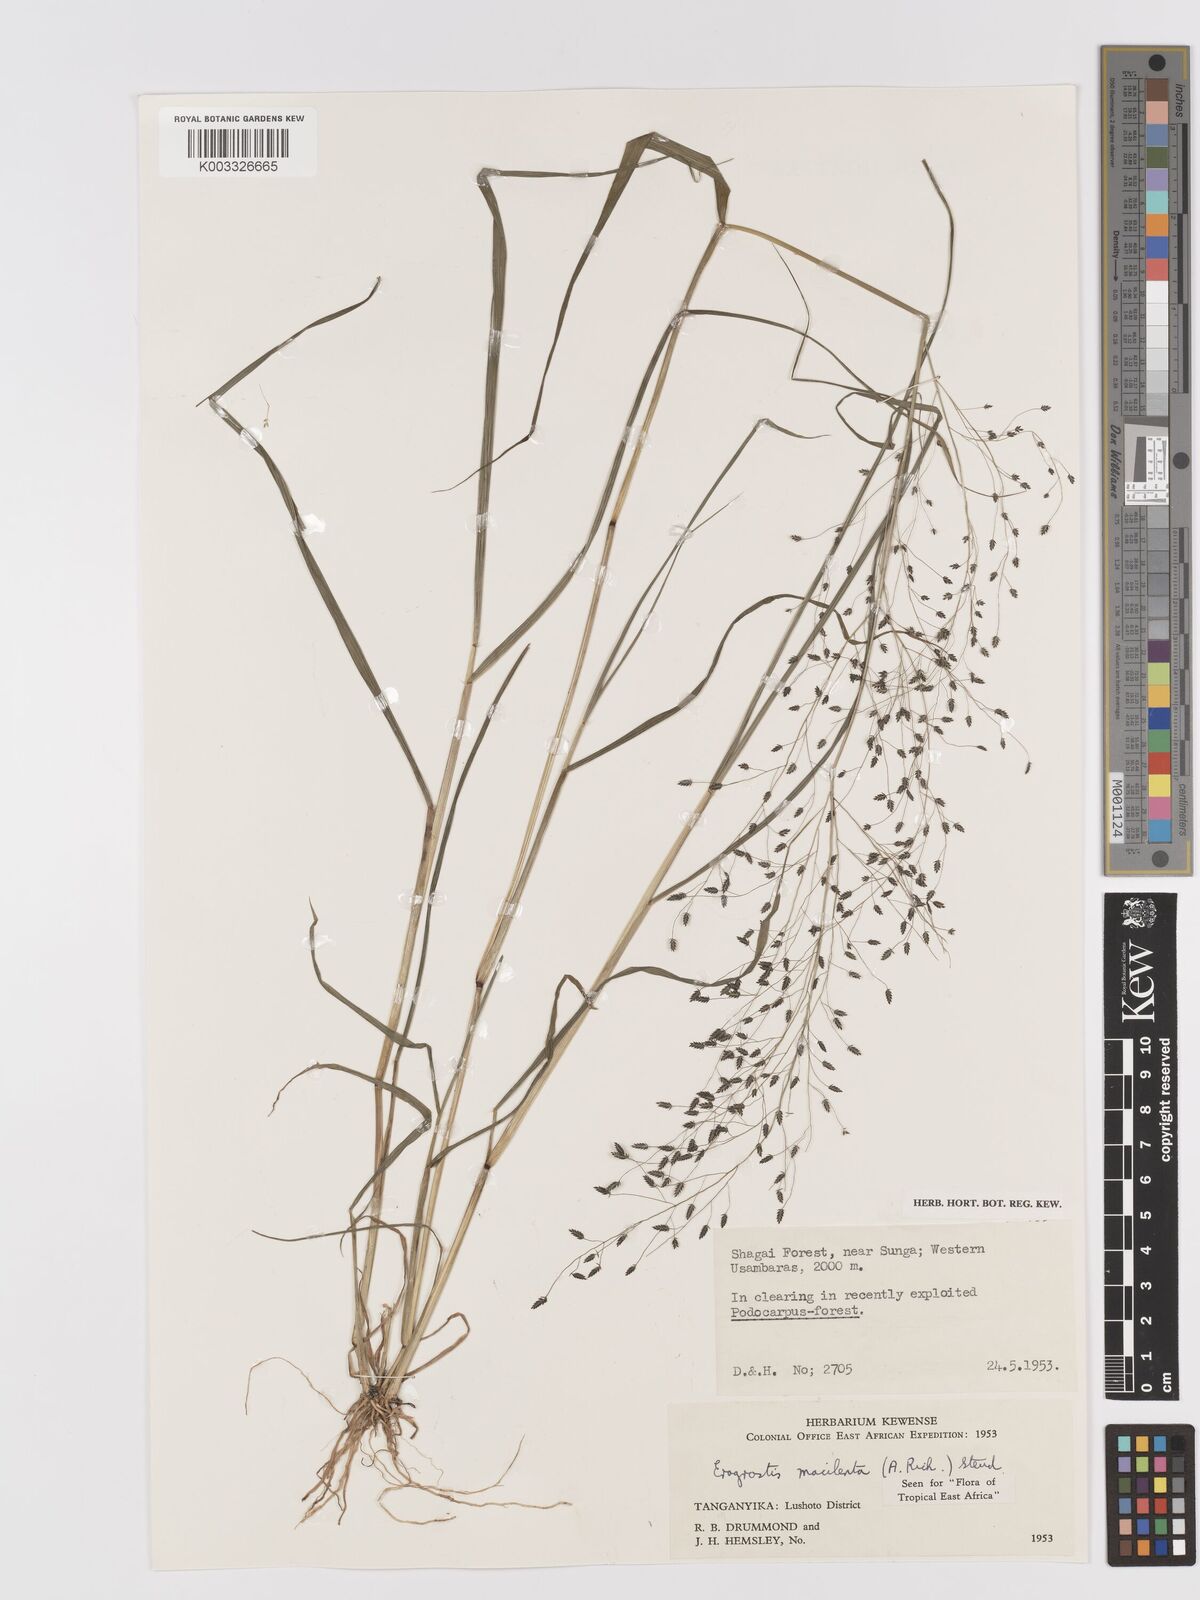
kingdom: Plantae
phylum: Tracheophyta
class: Liliopsida
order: Poales
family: Poaceae
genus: Eragrostis
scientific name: Eragrostis macilenta
